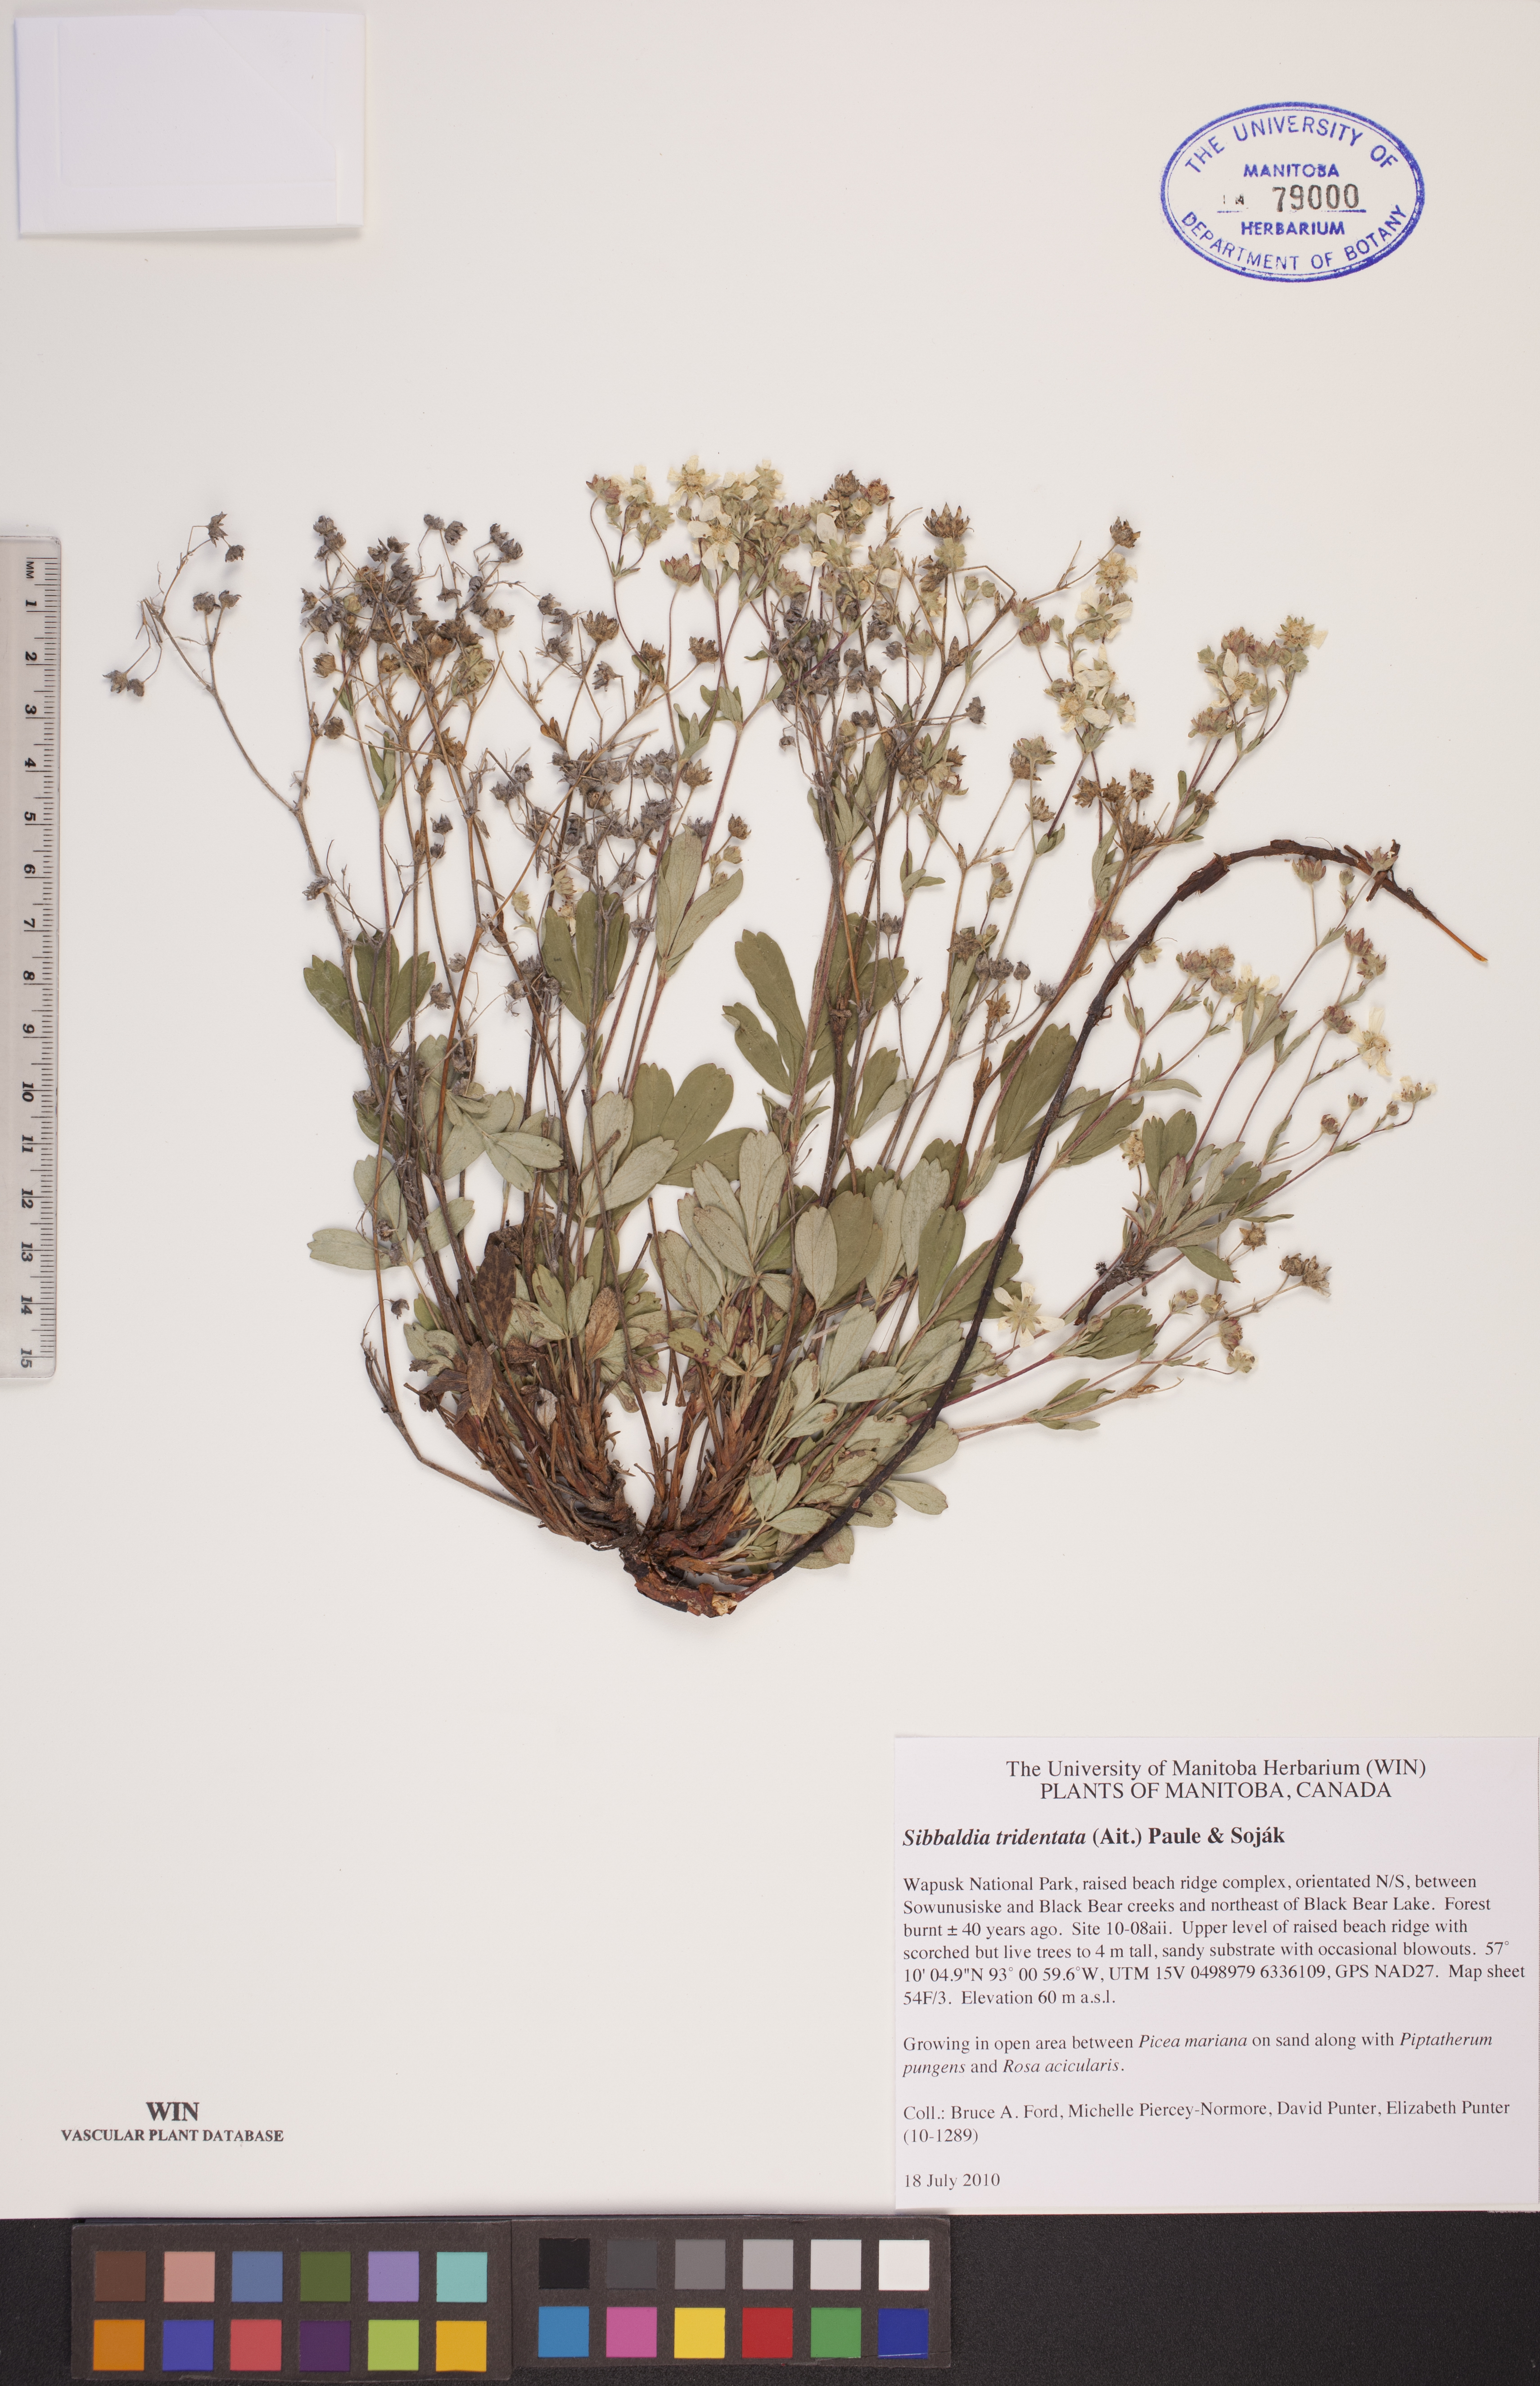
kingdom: Plantae
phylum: Tracheophyta
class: Magnoliopsida
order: Rosales
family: Rosaceae
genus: Sibbaldia
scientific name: Sibbaldia tridentata
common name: Three-toothed cinquefoil
